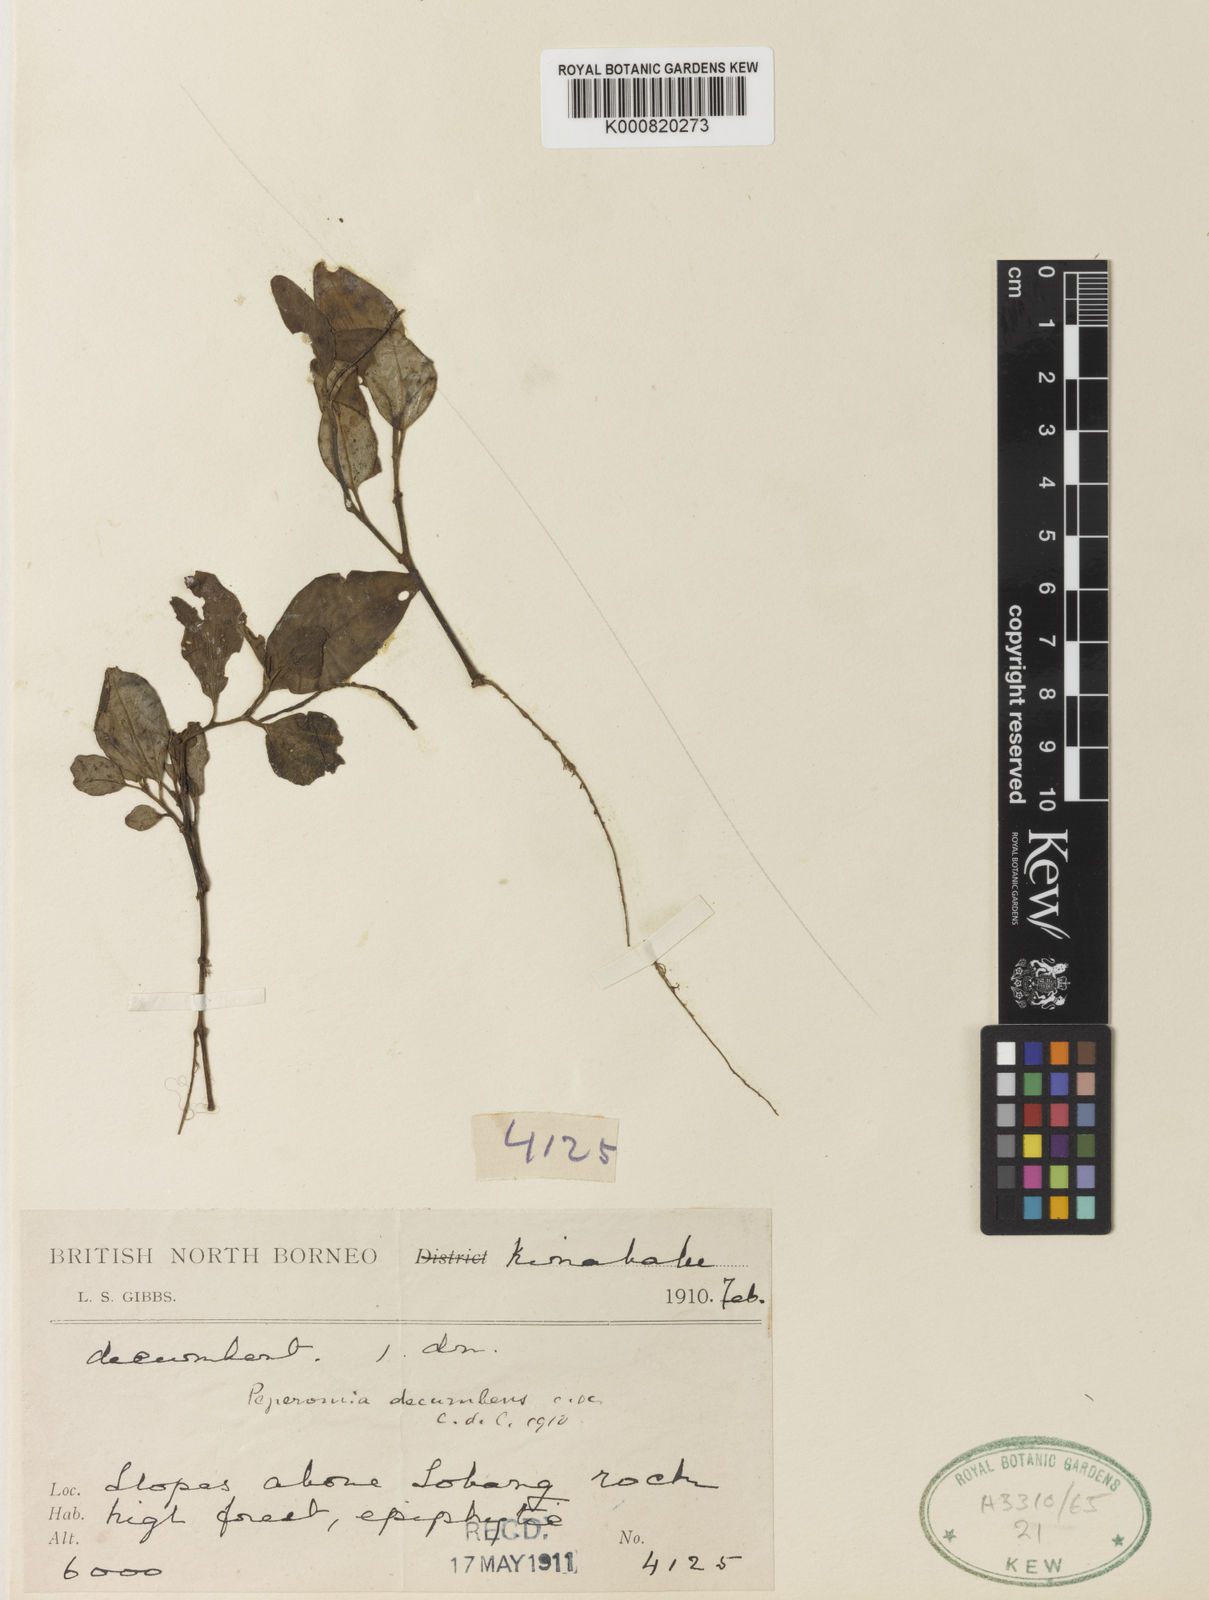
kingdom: Plantae
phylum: Tracheophyta
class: Magnoliopsida
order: Piperales
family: Piperaceae
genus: Peperomia
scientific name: Peperomia decumbens
